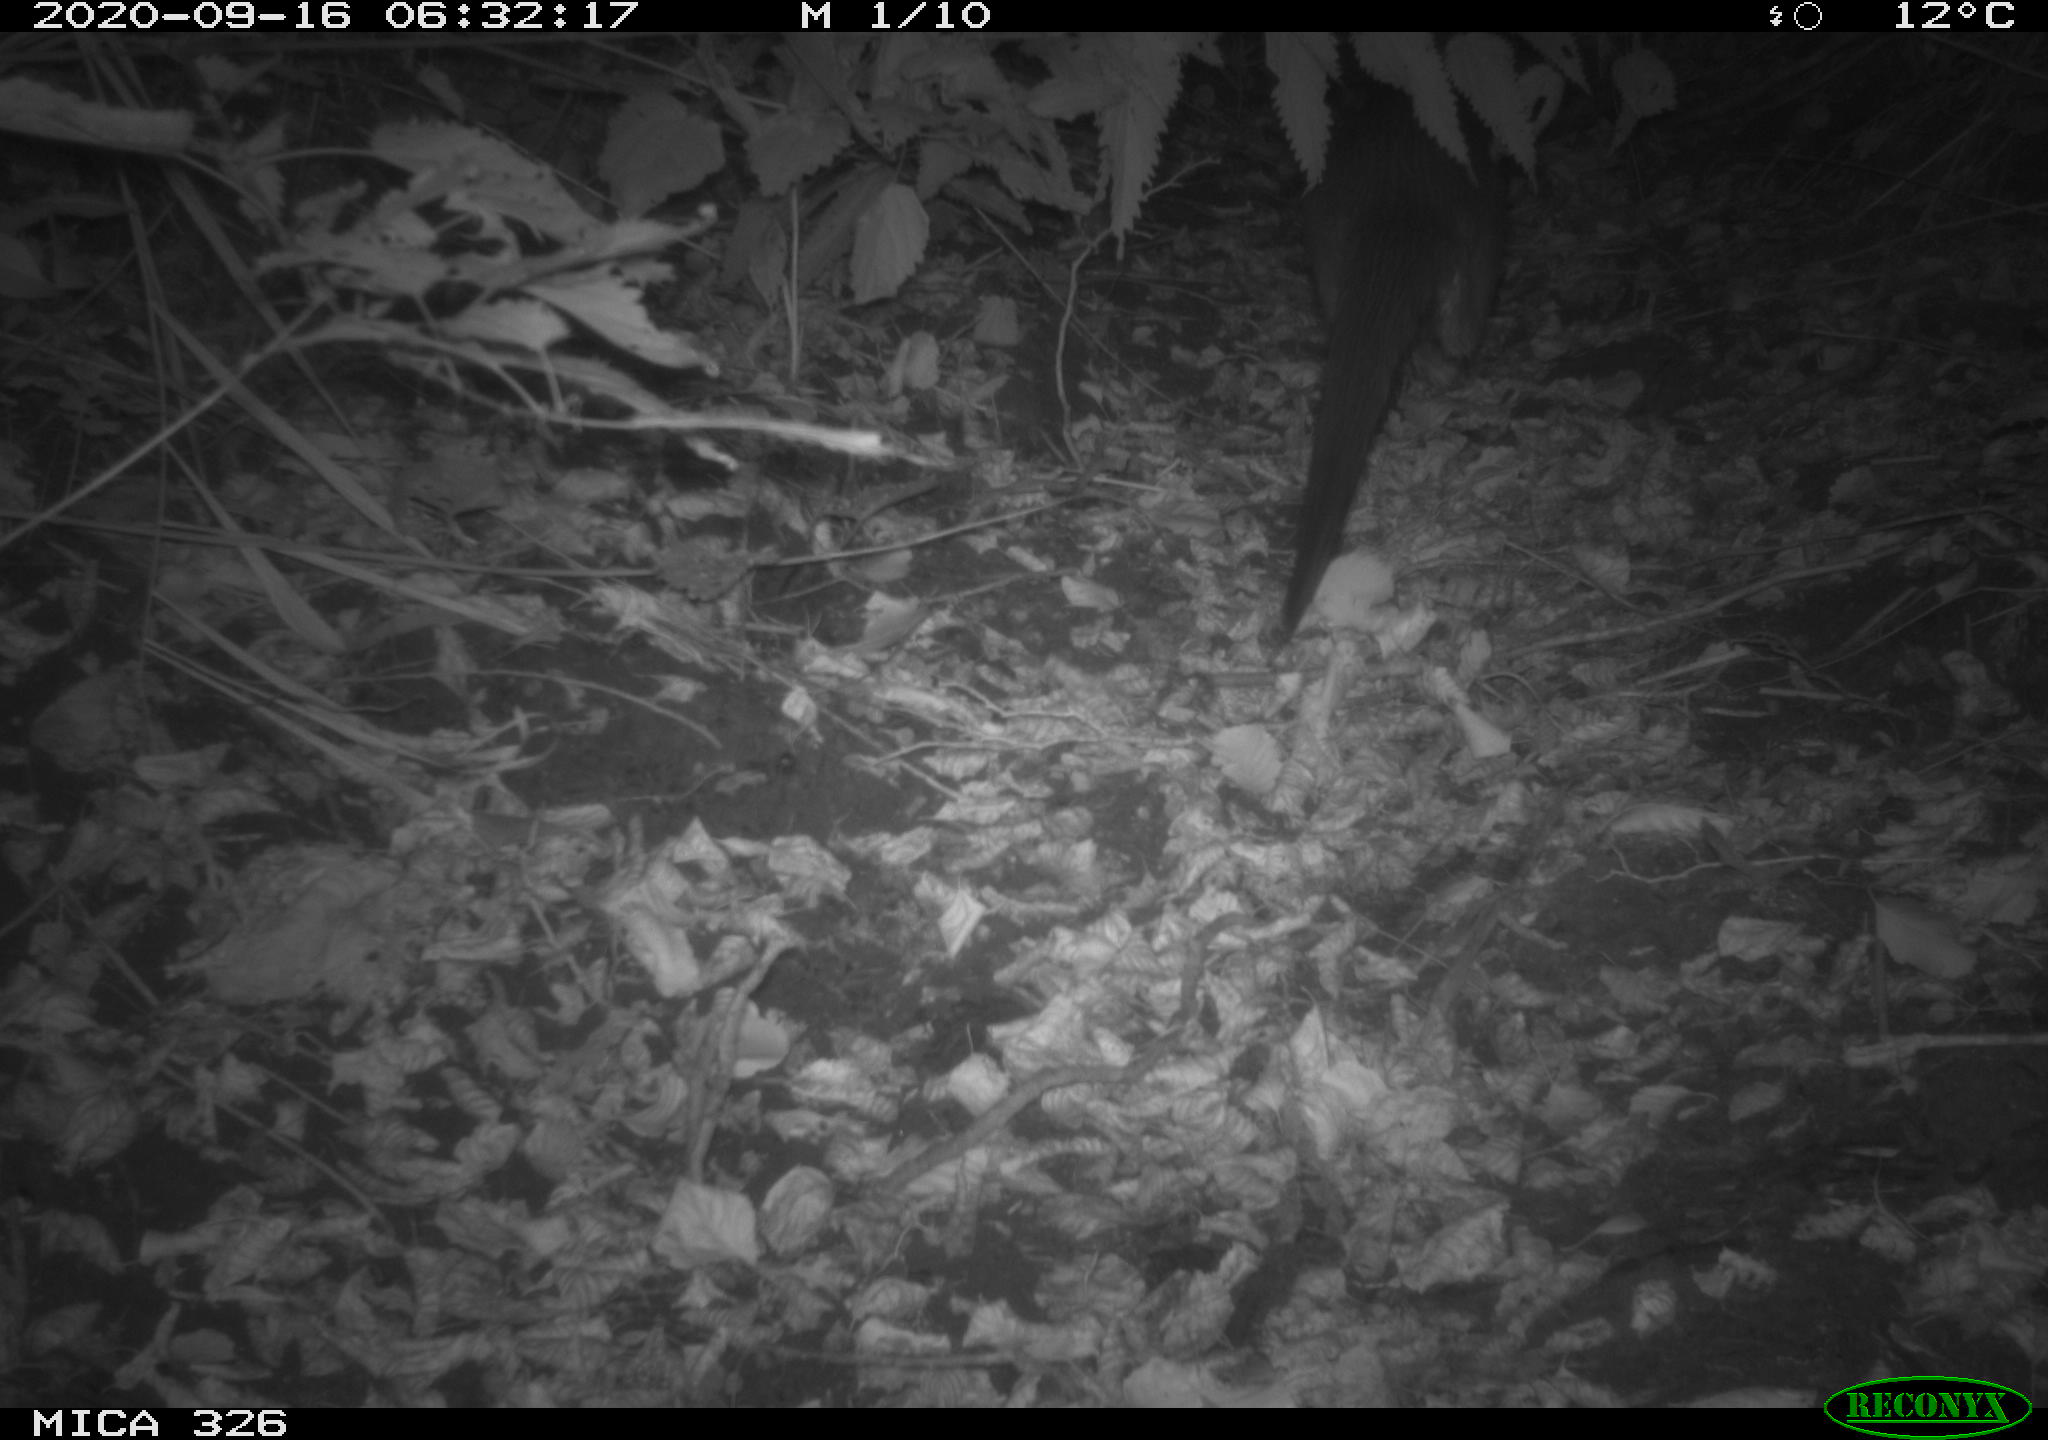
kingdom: Animalia
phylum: Chordata
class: Mammalia
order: Carnivora
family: Mustelidae
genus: Lutra
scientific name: Lutra lutra
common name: European otter
